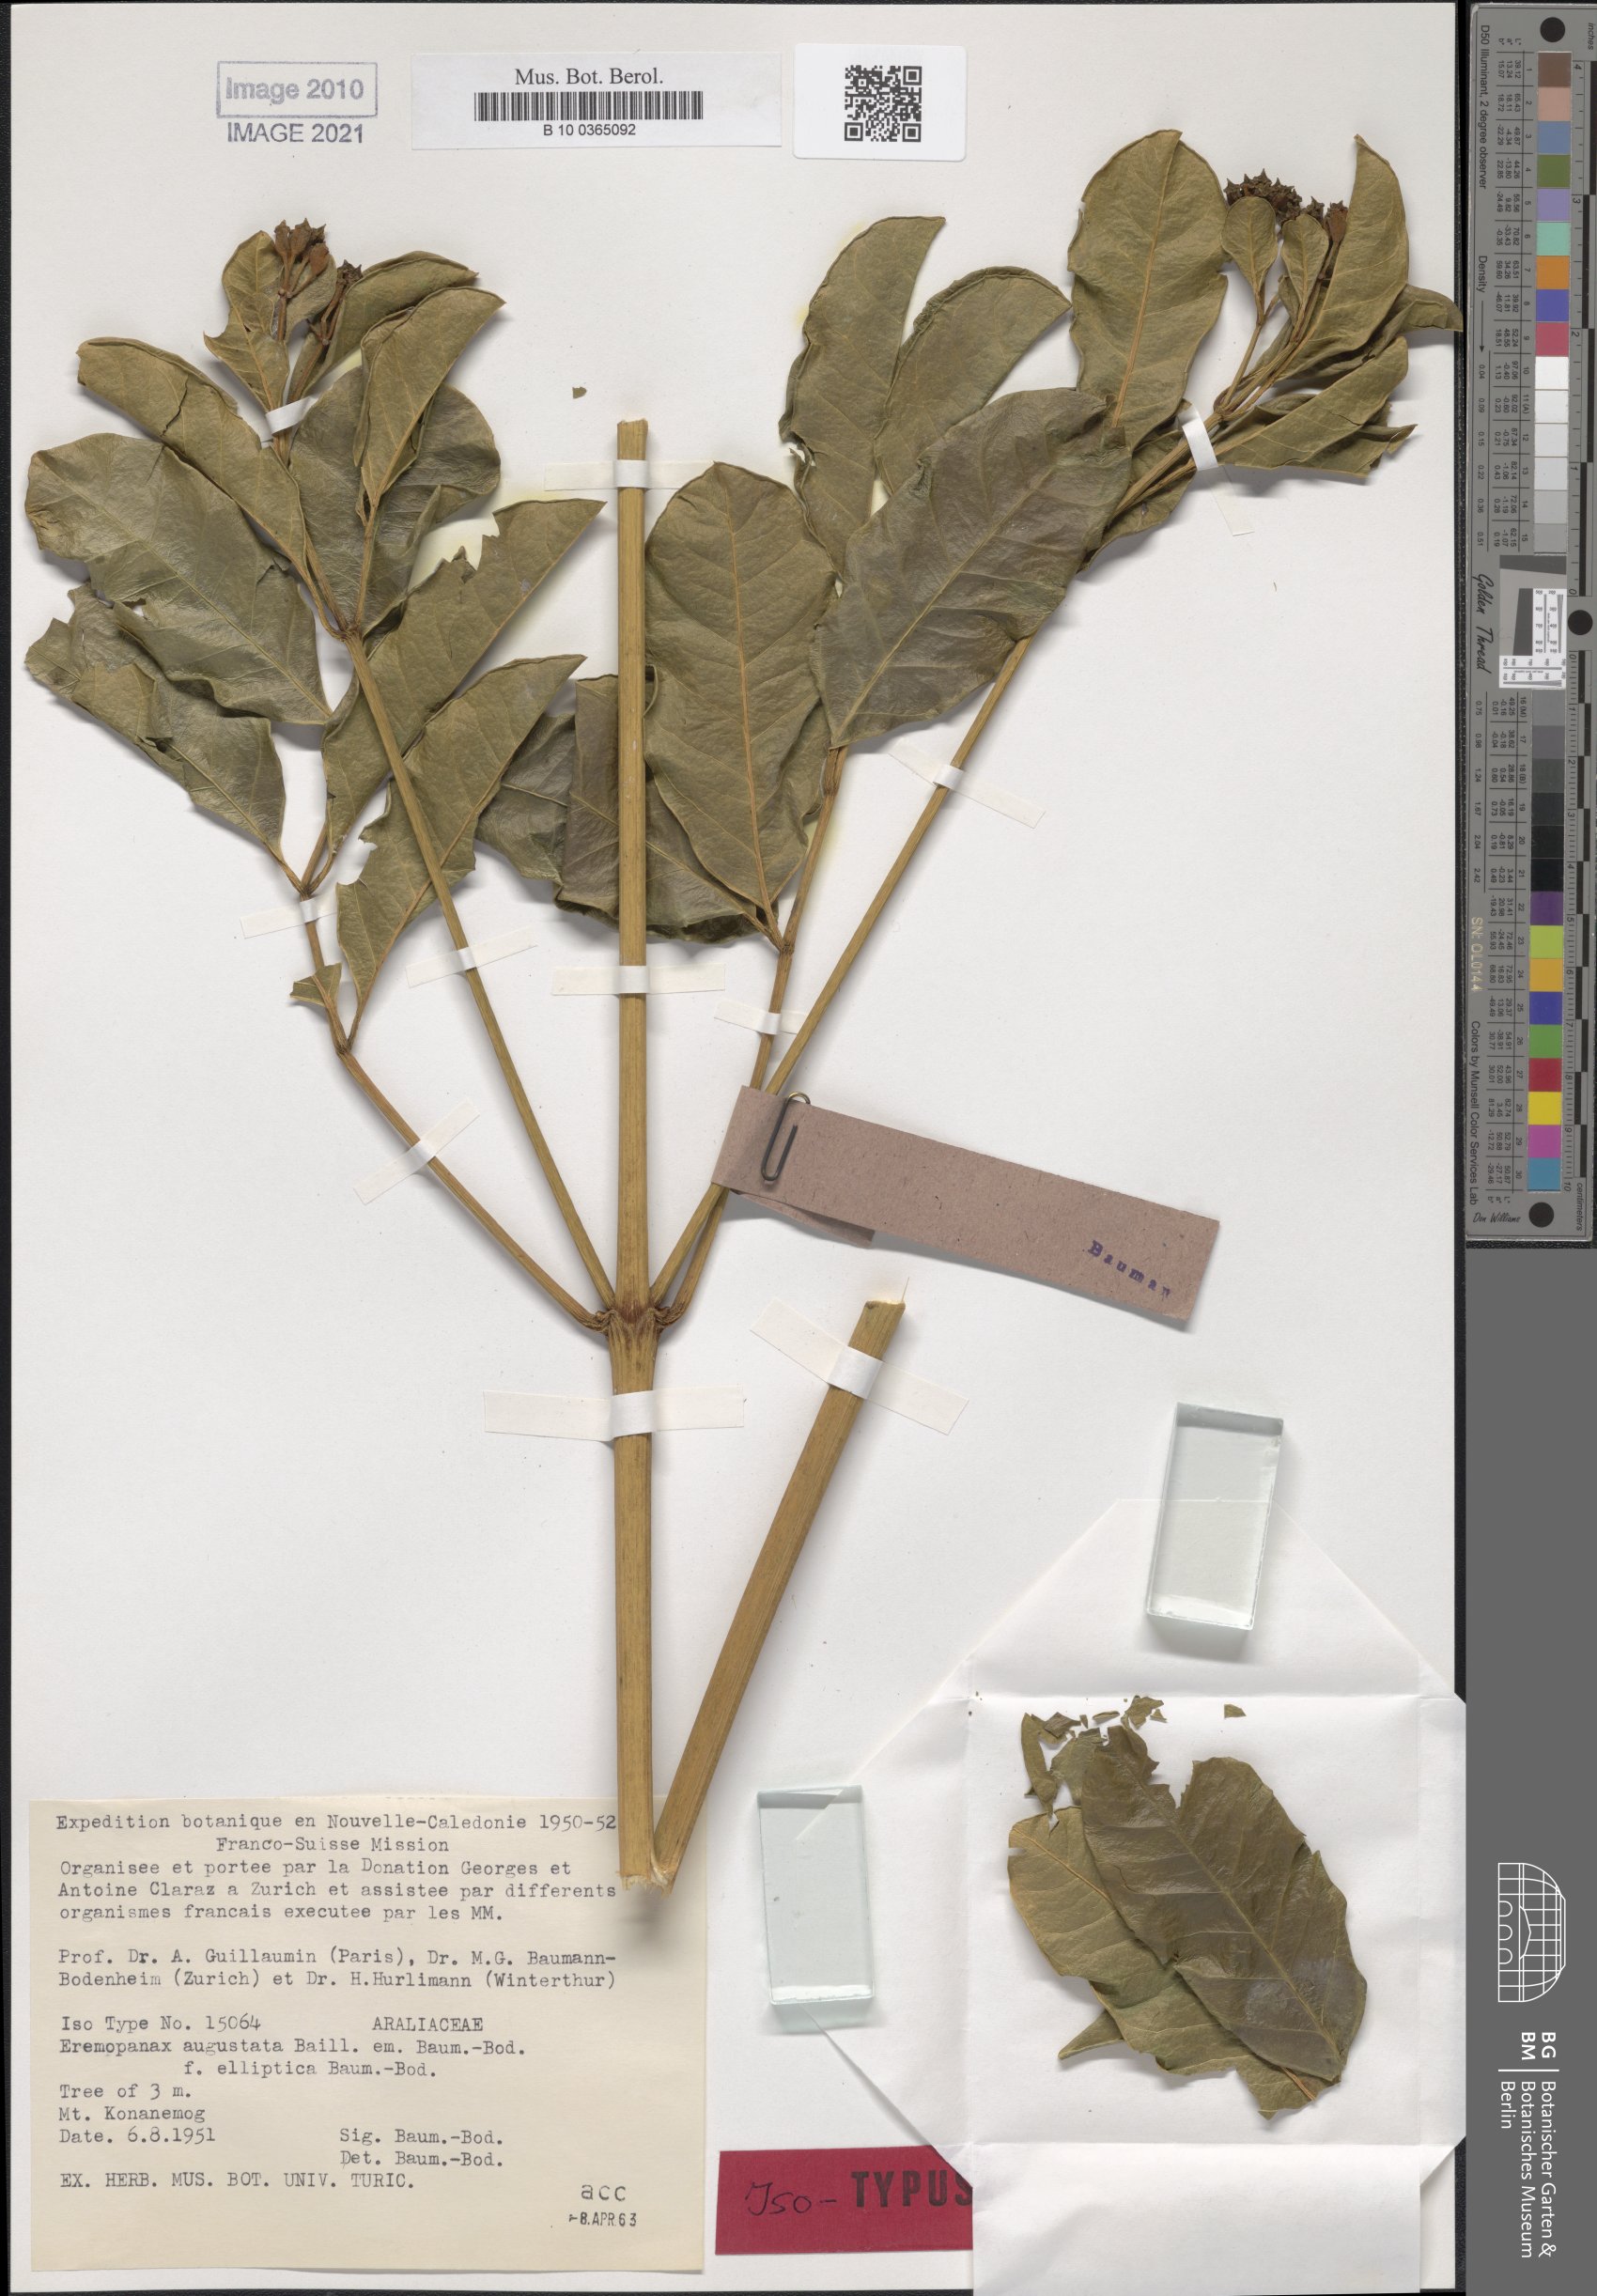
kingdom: Plantae
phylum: Tracheophyta
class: Magnoliopsida
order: Apiales
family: Araliaceae
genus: Polyscias
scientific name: Polyscias otopyrena
